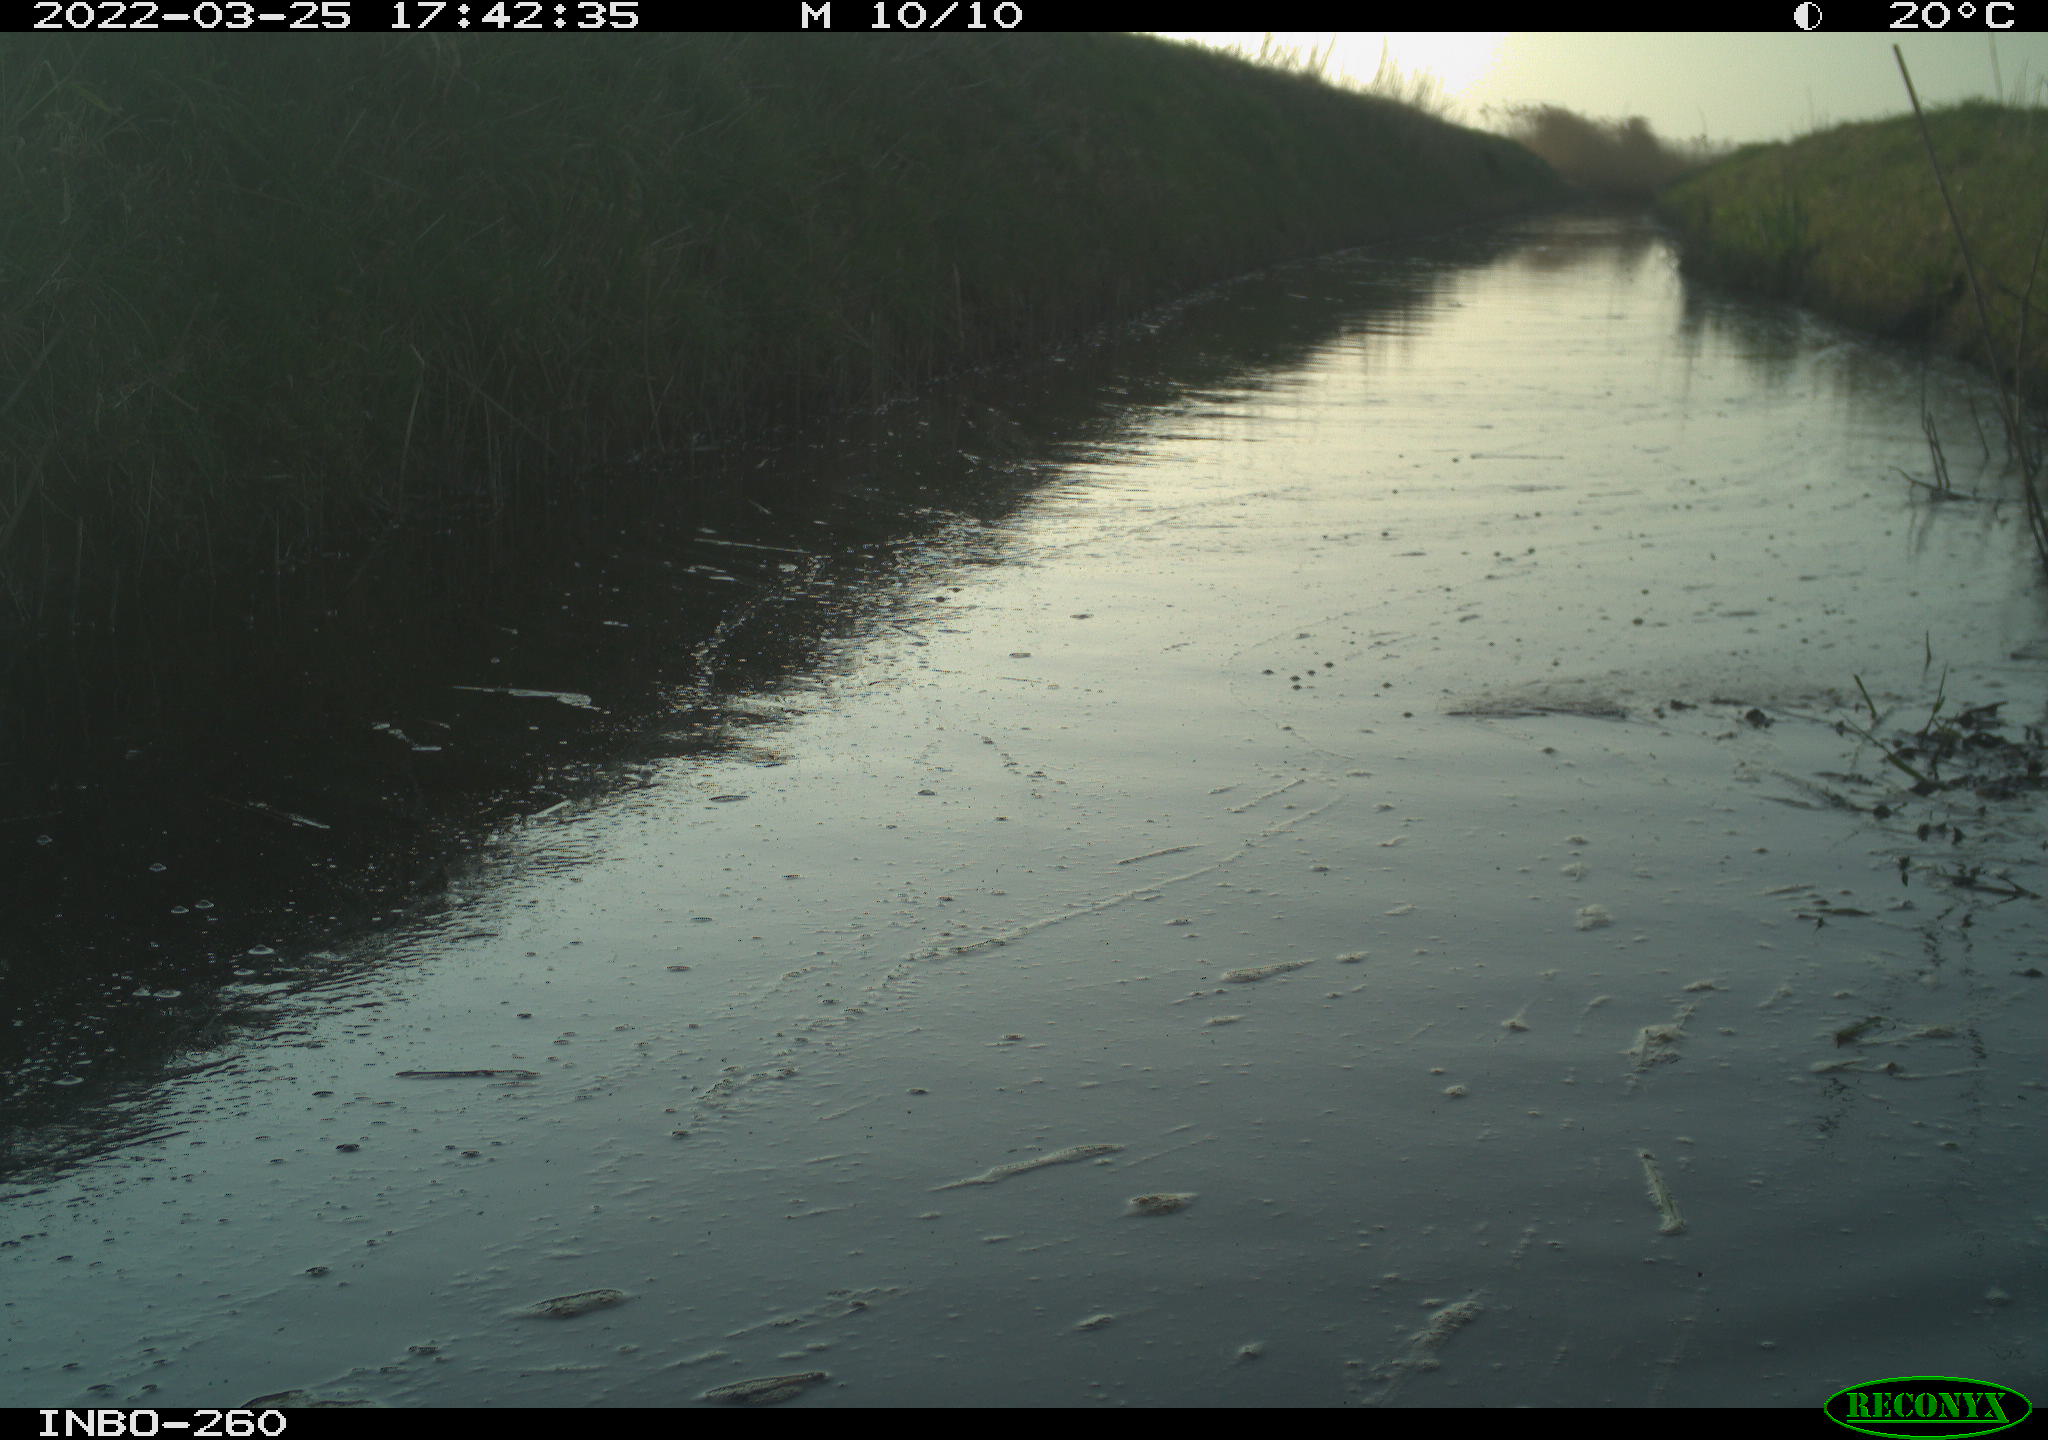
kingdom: Animalia
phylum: Chordata
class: Aves
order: Gruiformes
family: Rallidae
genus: Fulica
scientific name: Fulica atra
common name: Eurasian coot
